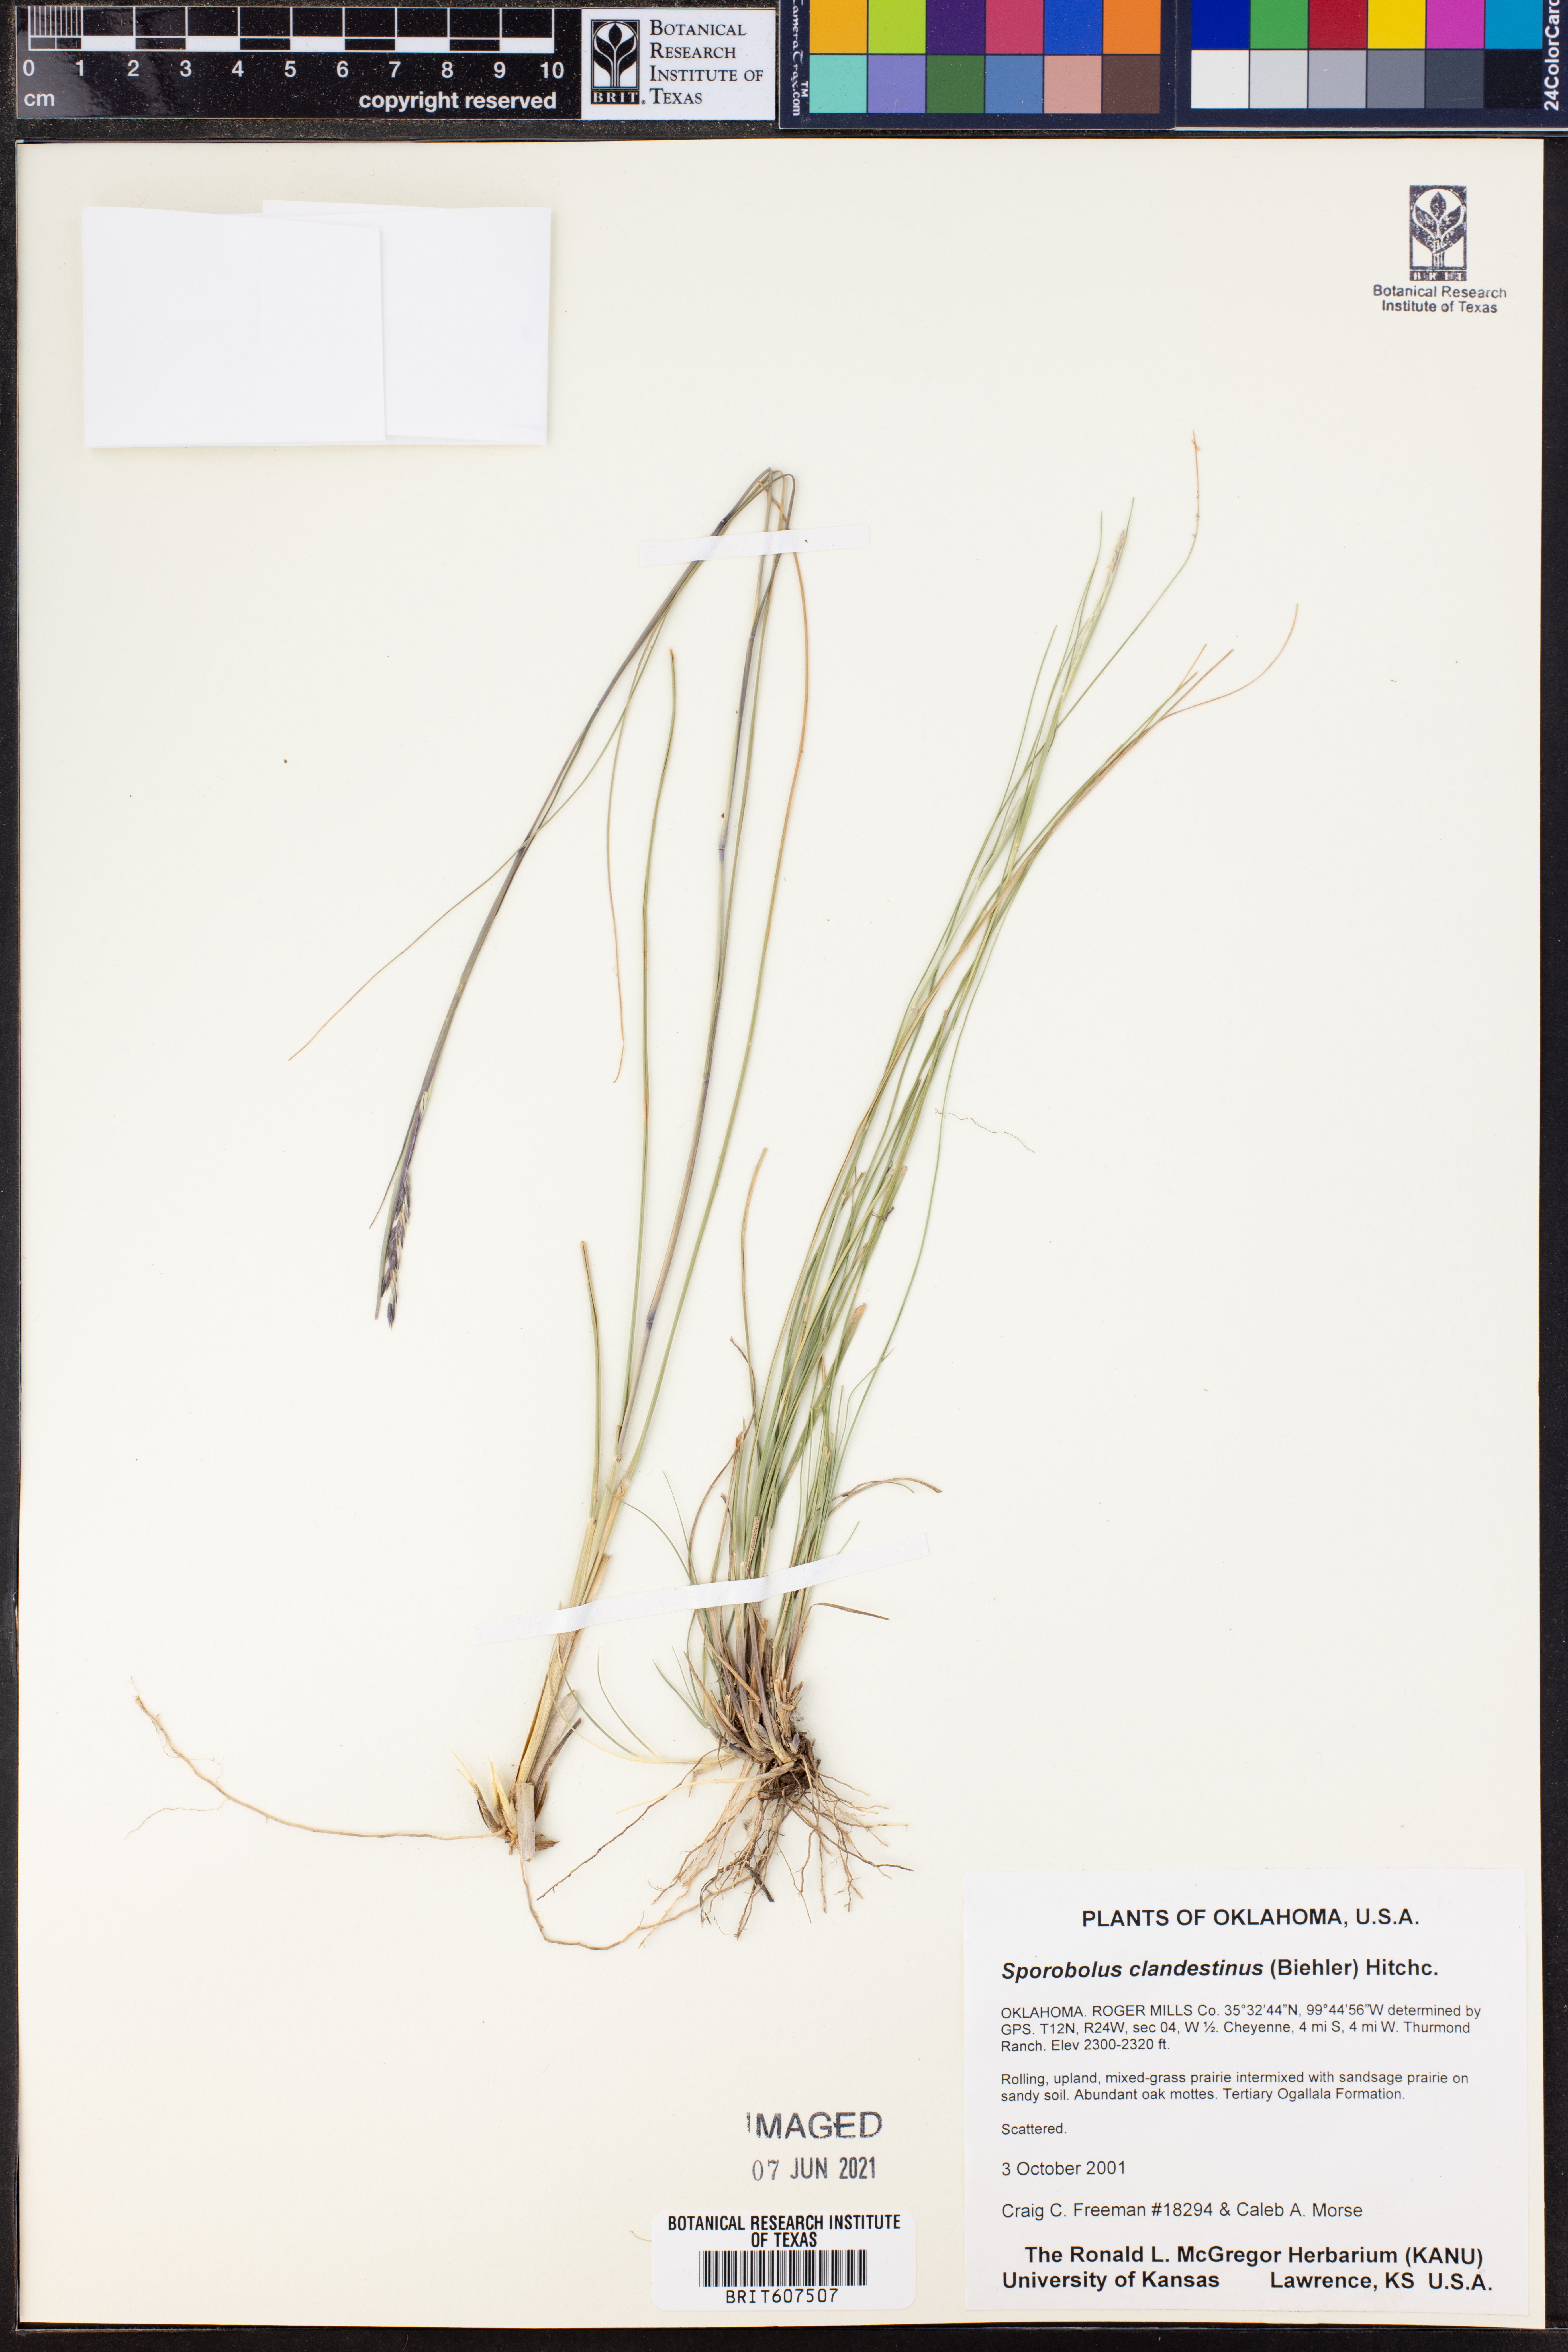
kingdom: Plantae
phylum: Tracheophyta
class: Liliopsida
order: Poales
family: Poaceae
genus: Sporobolus
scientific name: Sporobolus clandestinus
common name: Hidden dropseed
